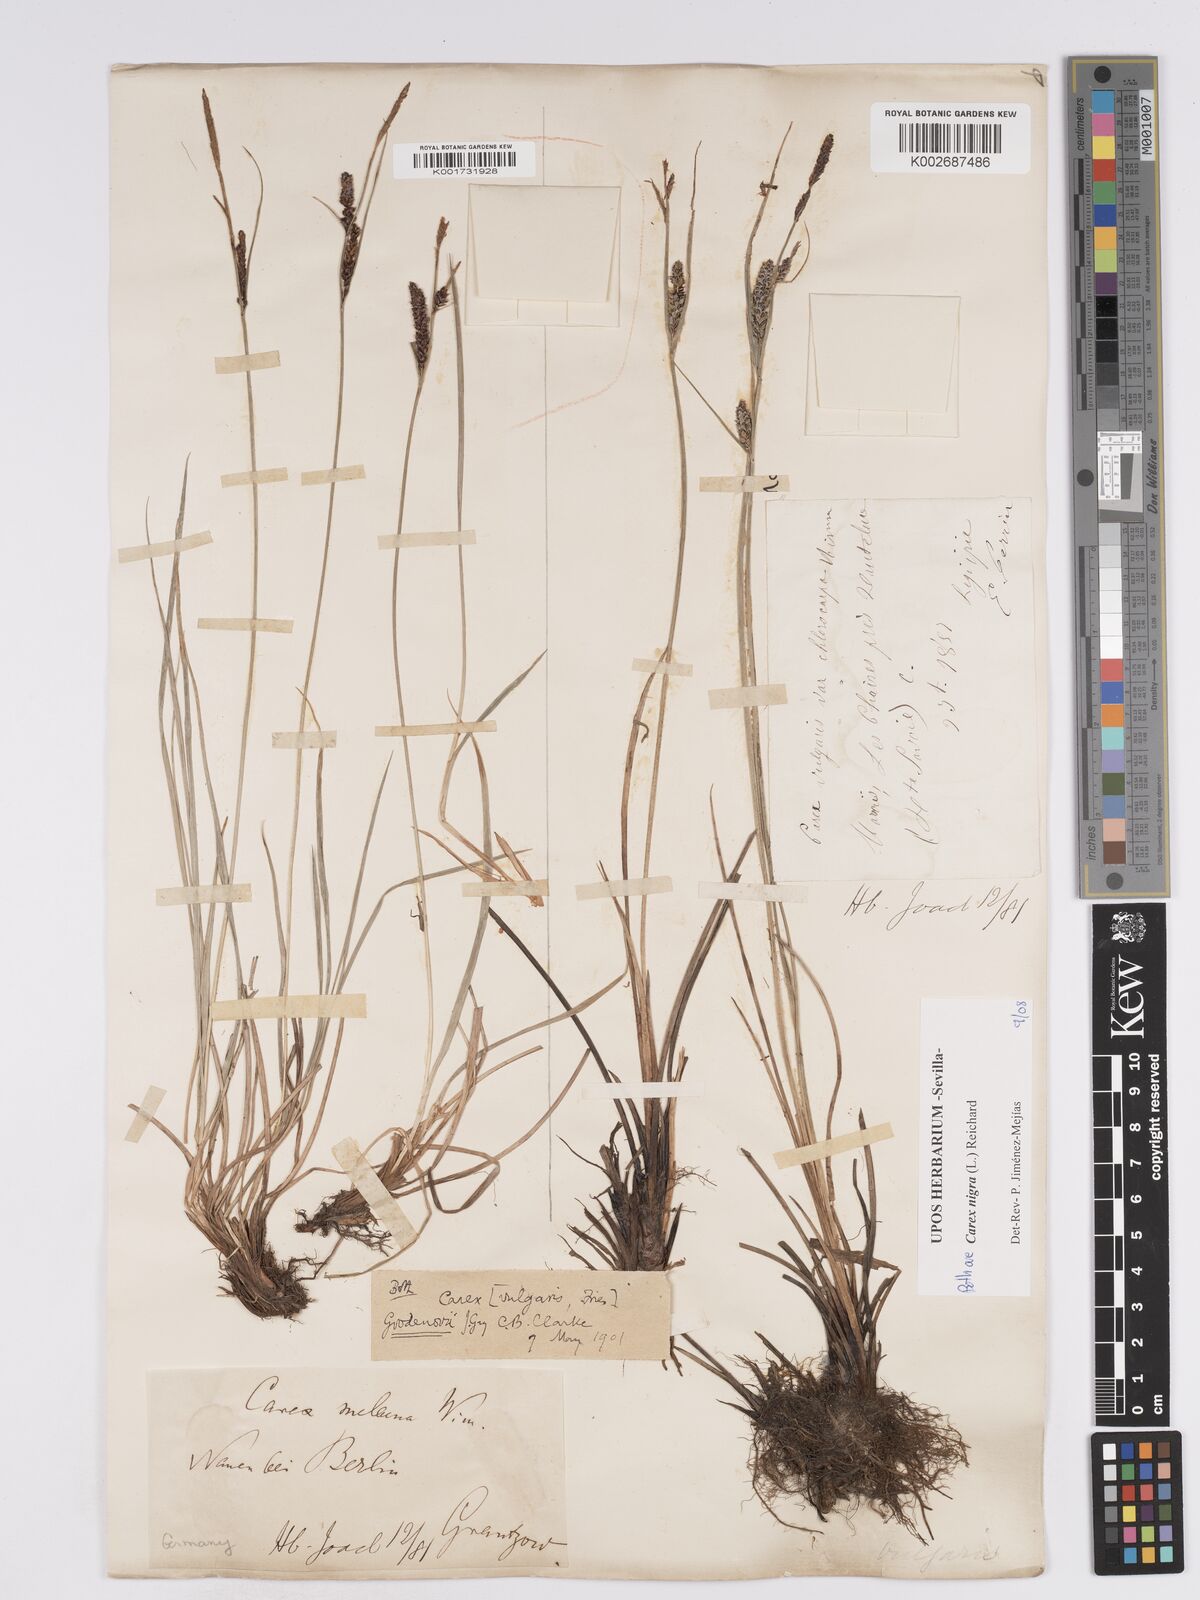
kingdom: Plantae
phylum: Tracheophyta
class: Liliopsida
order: Poales
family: Cyperaceae
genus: Carex
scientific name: Carex nigra
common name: Common sedge
